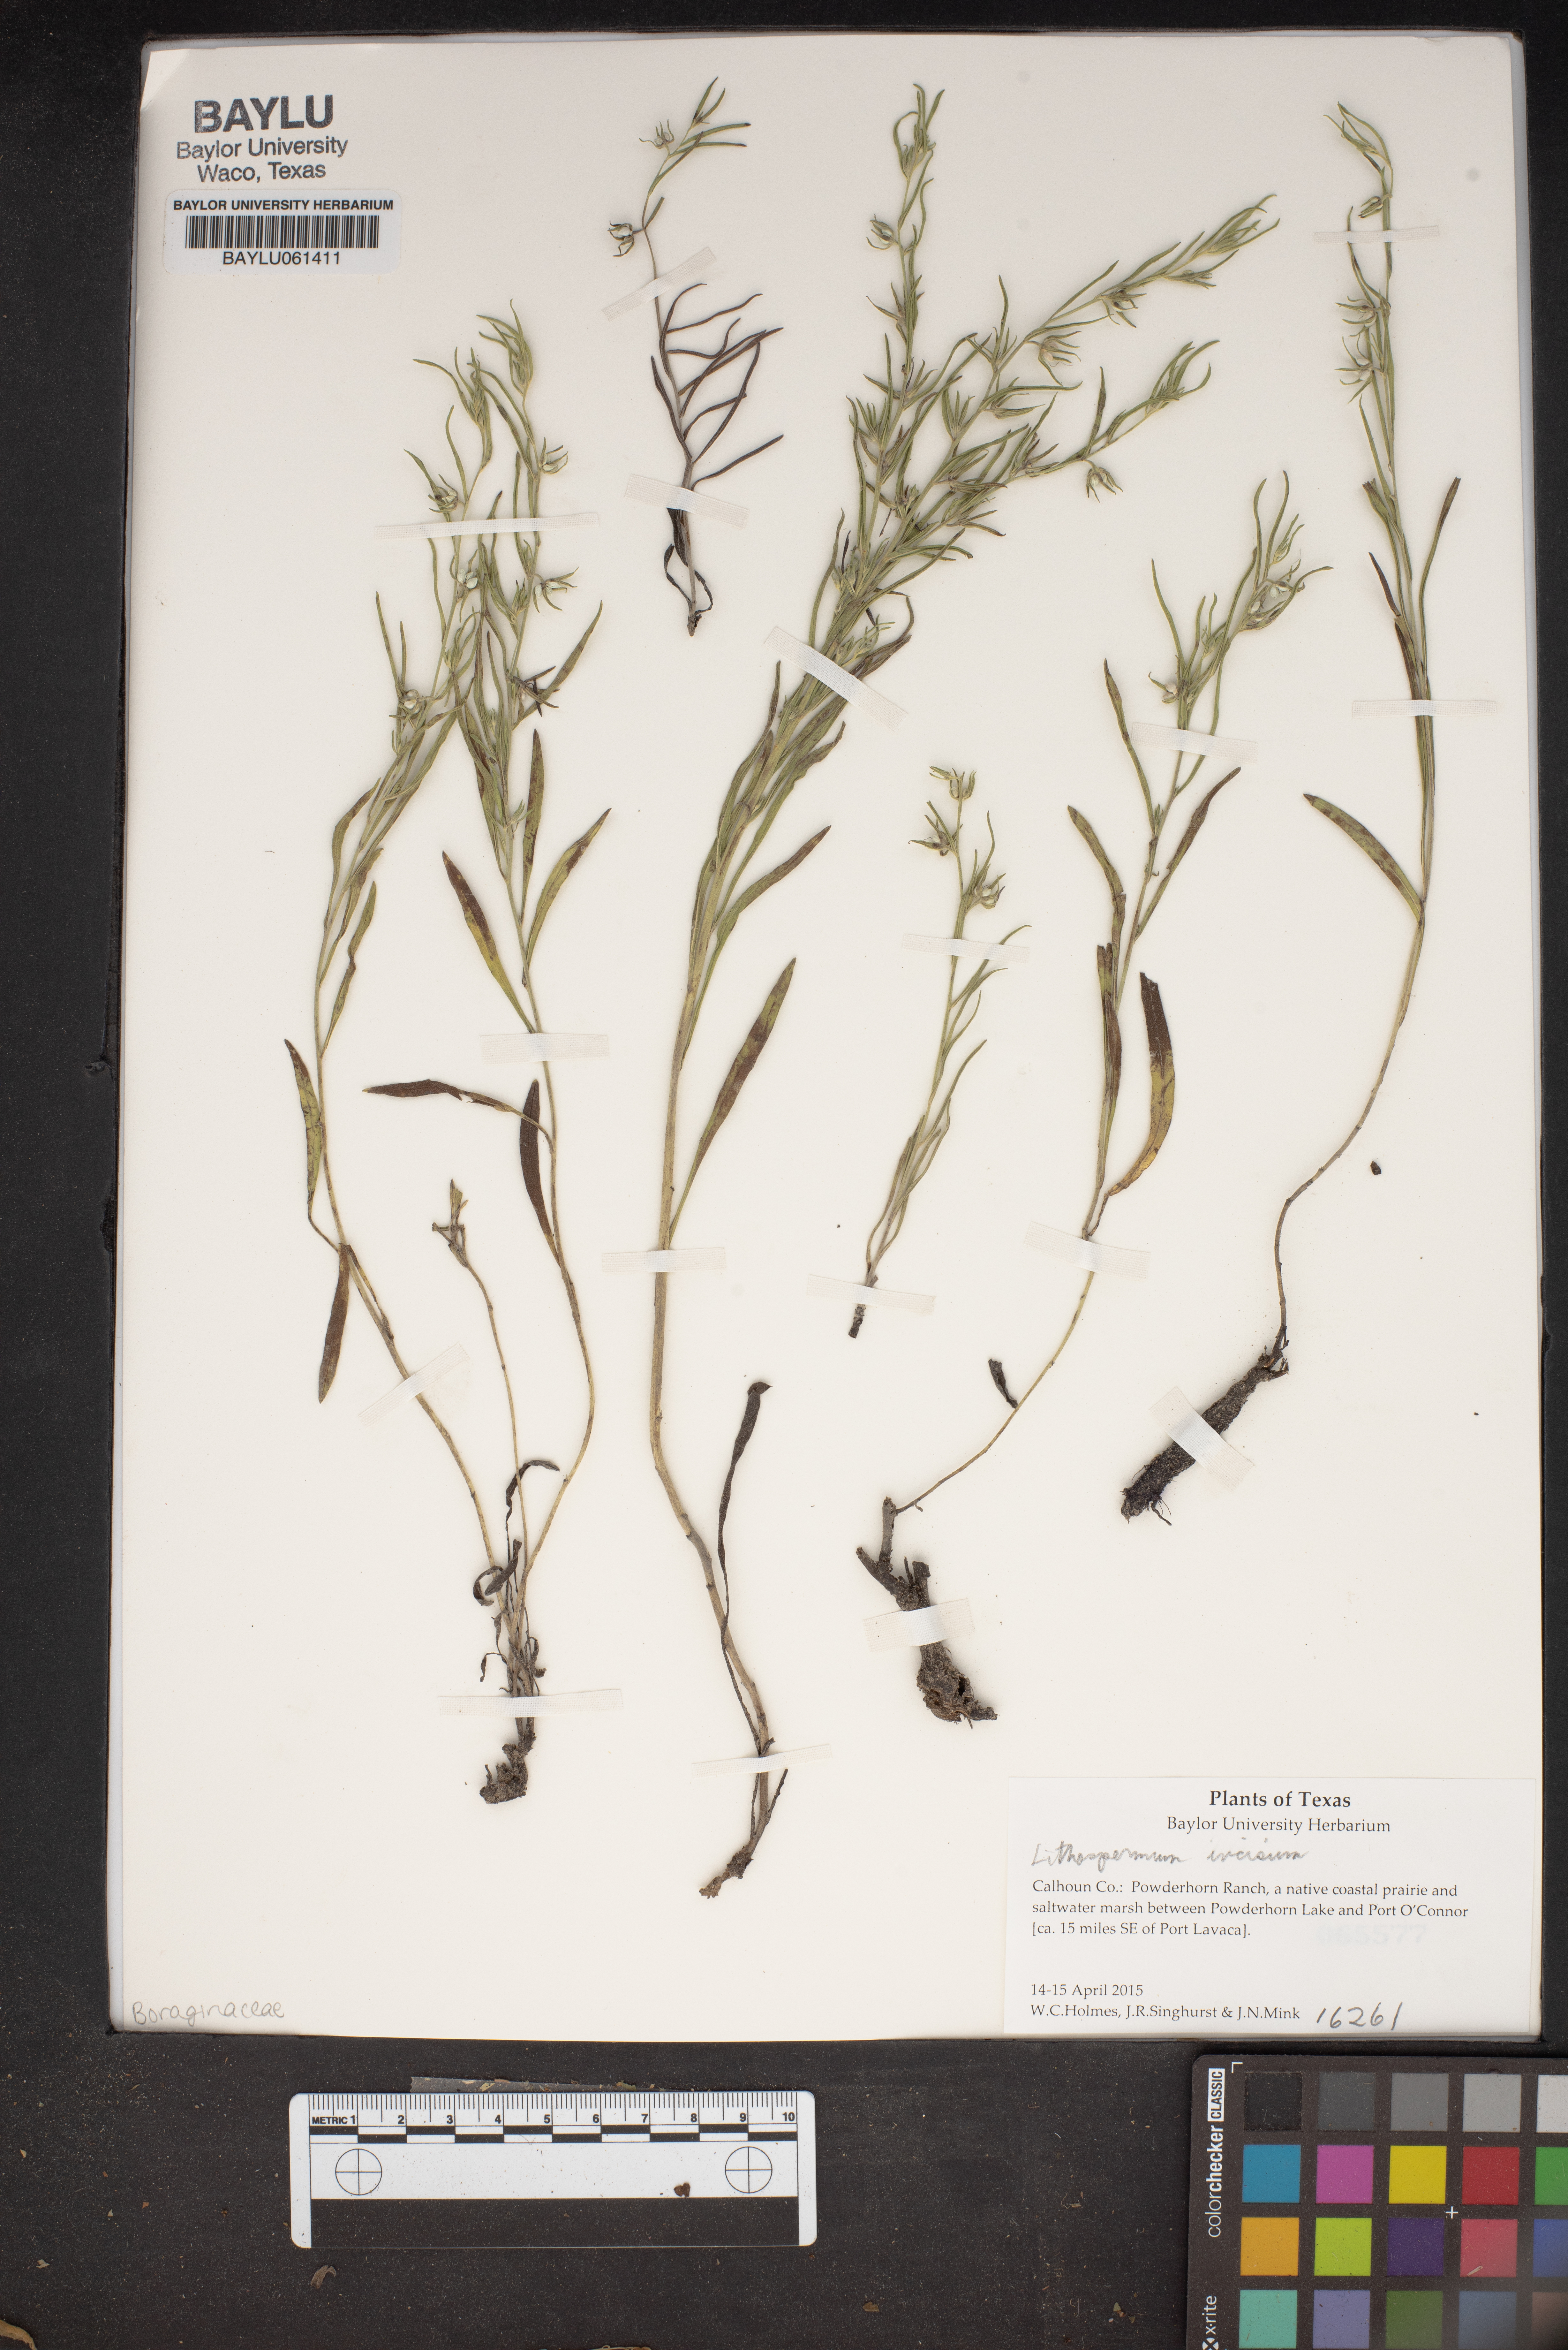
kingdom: Plantae
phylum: Tracheophyta
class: Magnoliopsida
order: Boraginales
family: Boraginaceae
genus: Lithospermum
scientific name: Lithospermum incisum
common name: Fringed gromwell
